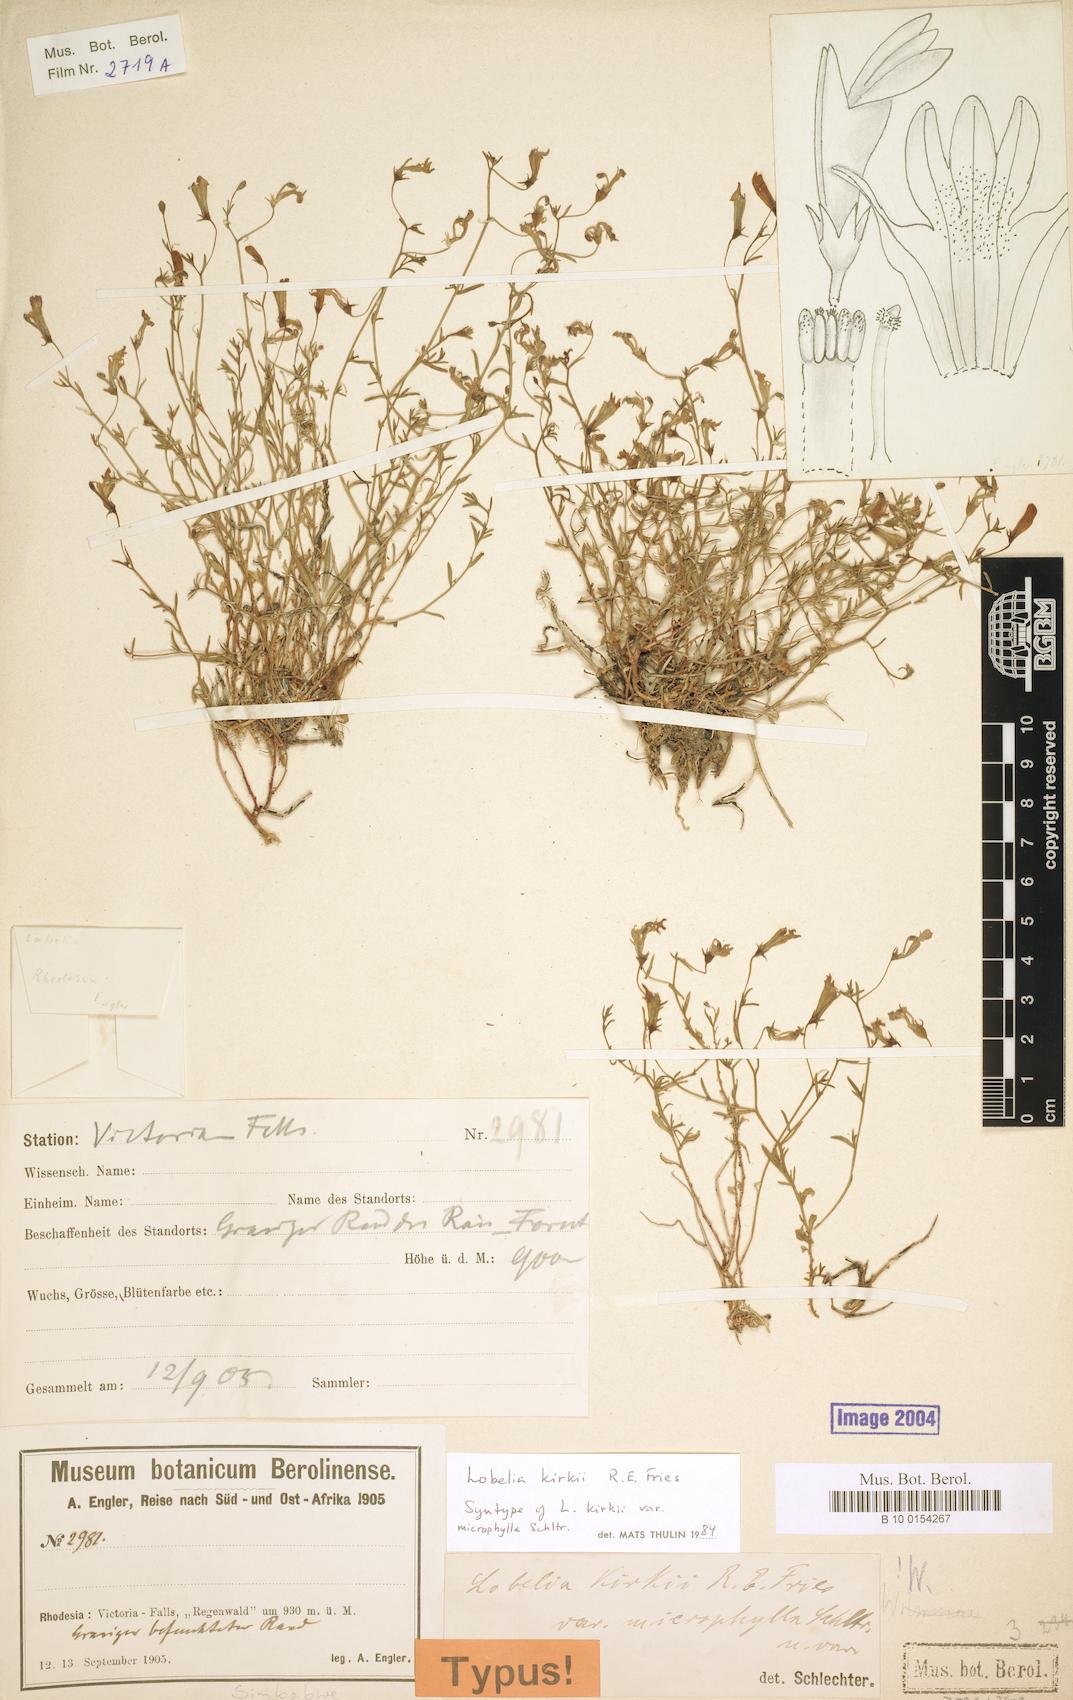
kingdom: Plantae
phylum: Tracheophyta
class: Magnoliopsida
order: Asterales
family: Campanulaceae
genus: Lobelia
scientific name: Lobelia kirkii
